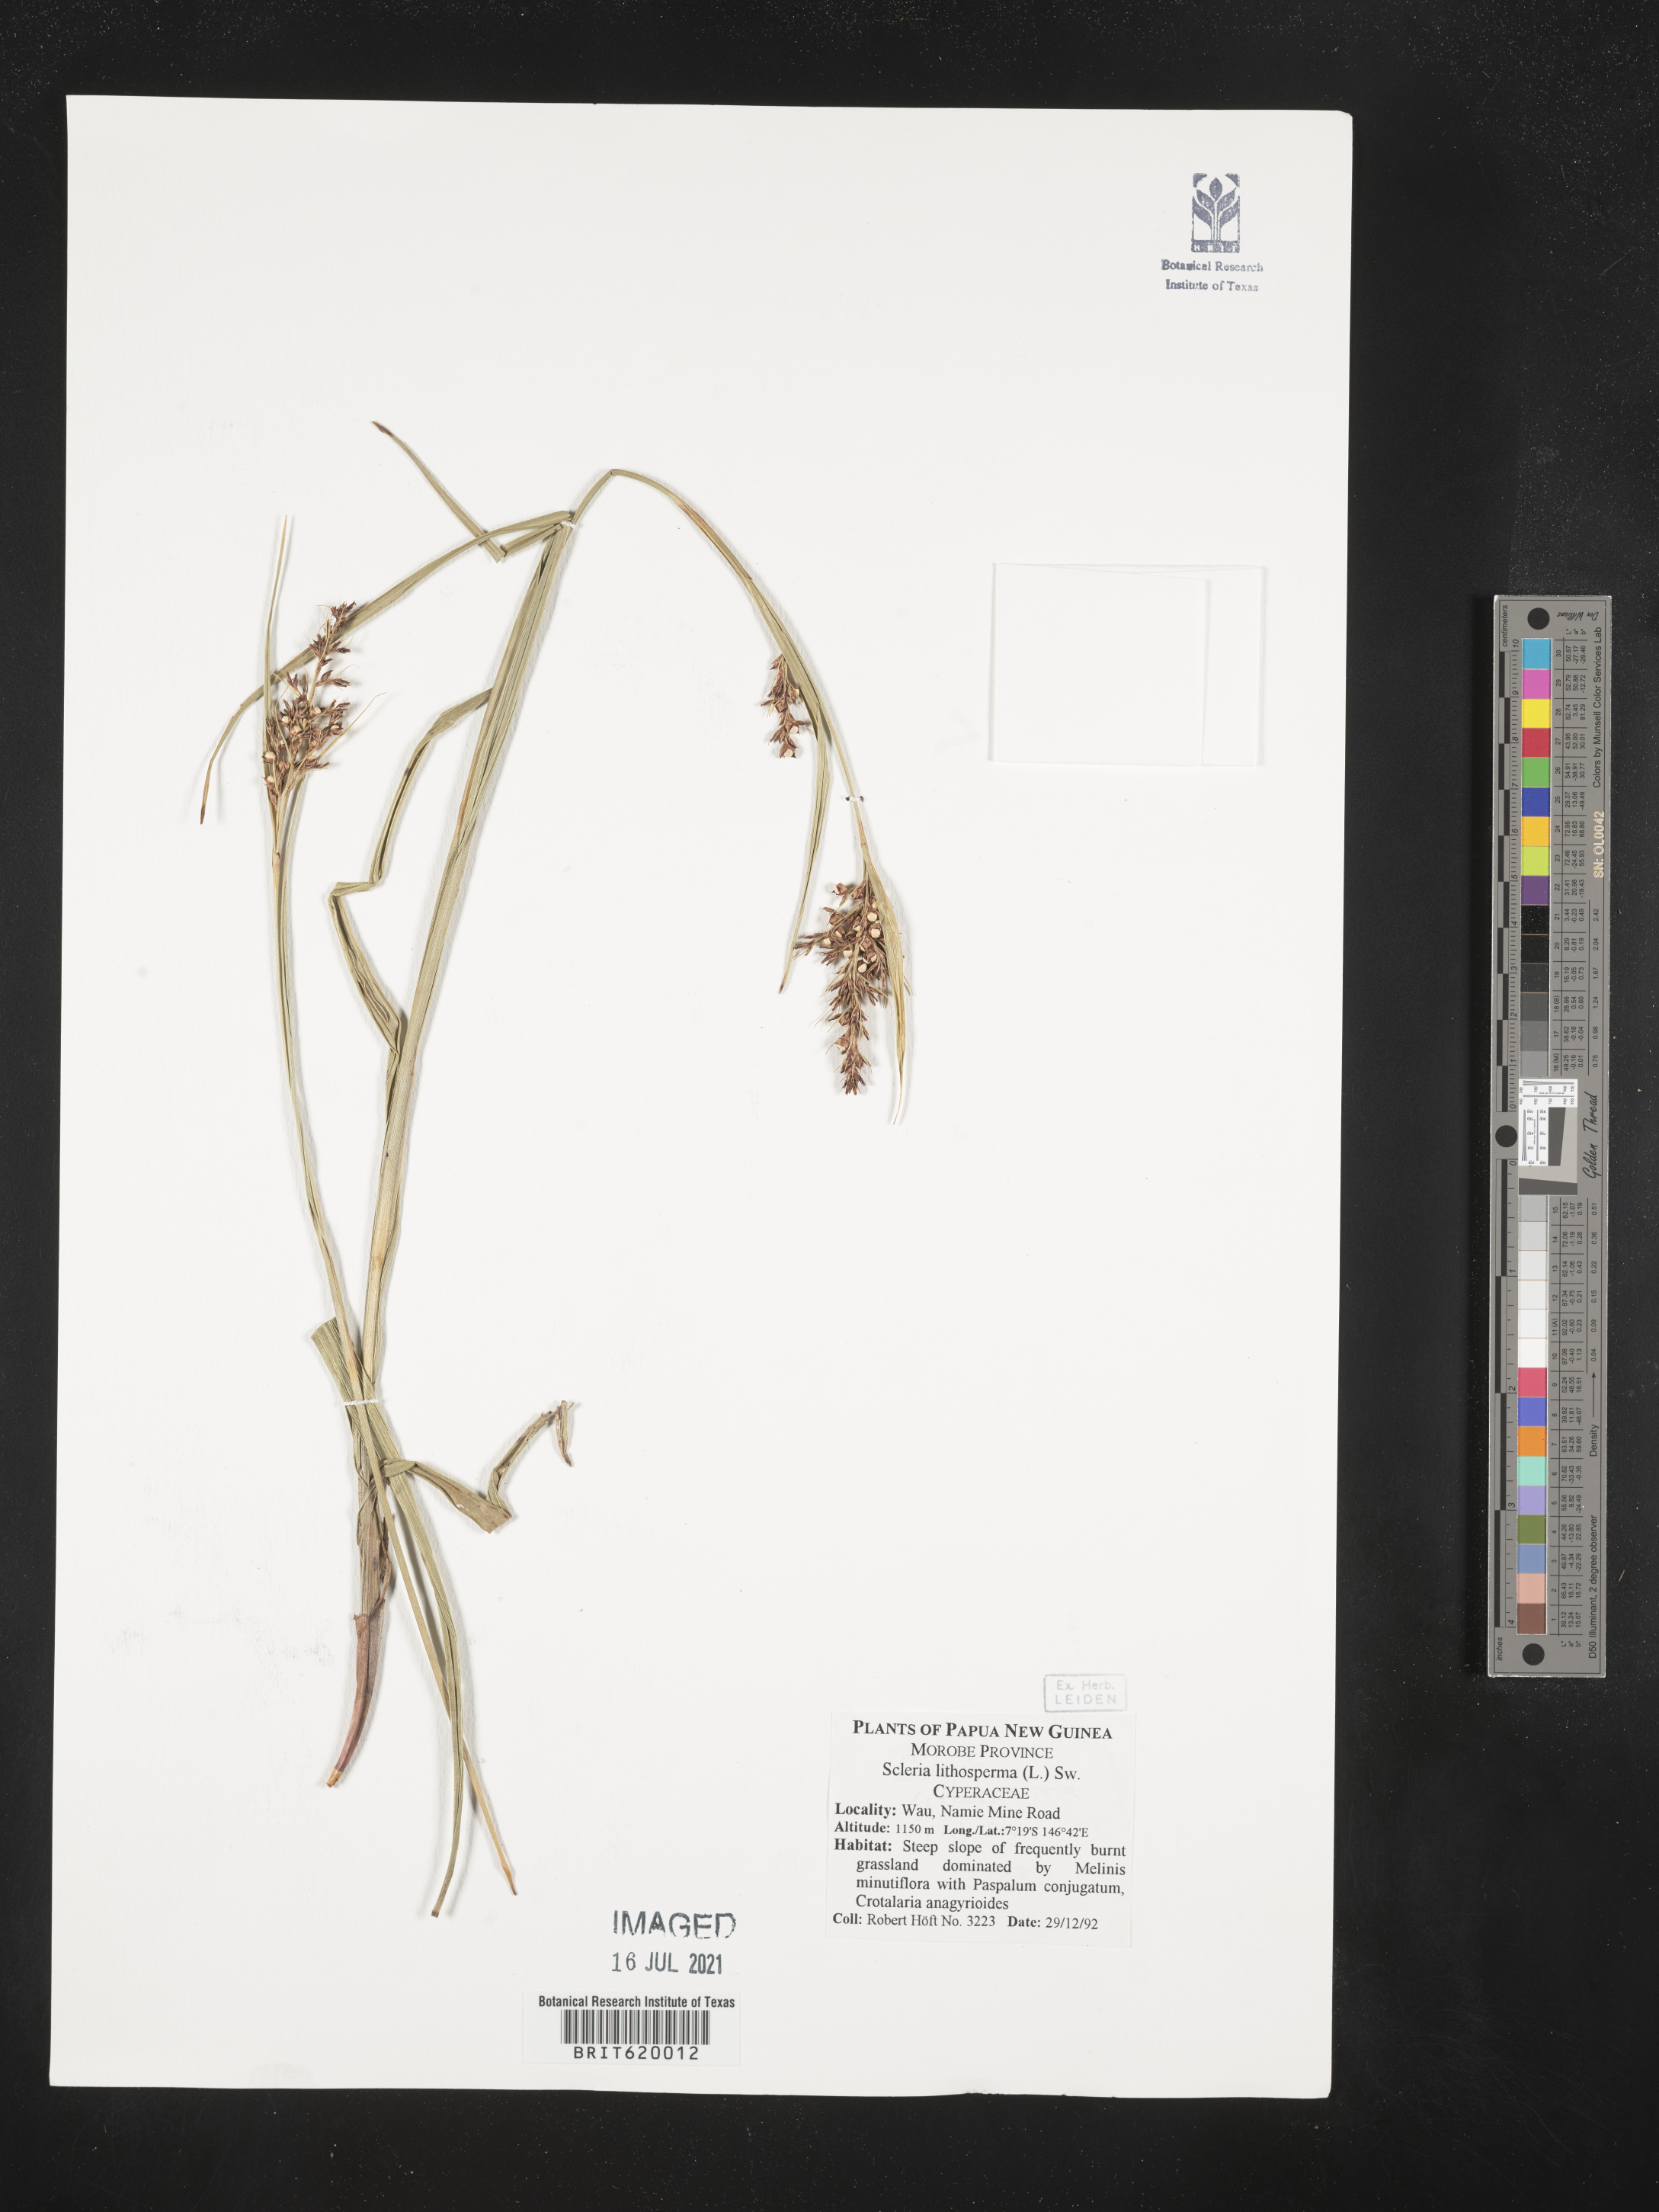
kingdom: Plantae
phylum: Tracheophyta
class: Liliopsida
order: Poales
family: Cyperaceae
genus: Scleria
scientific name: Scleria lithosperma
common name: Florida keys nut-rush
